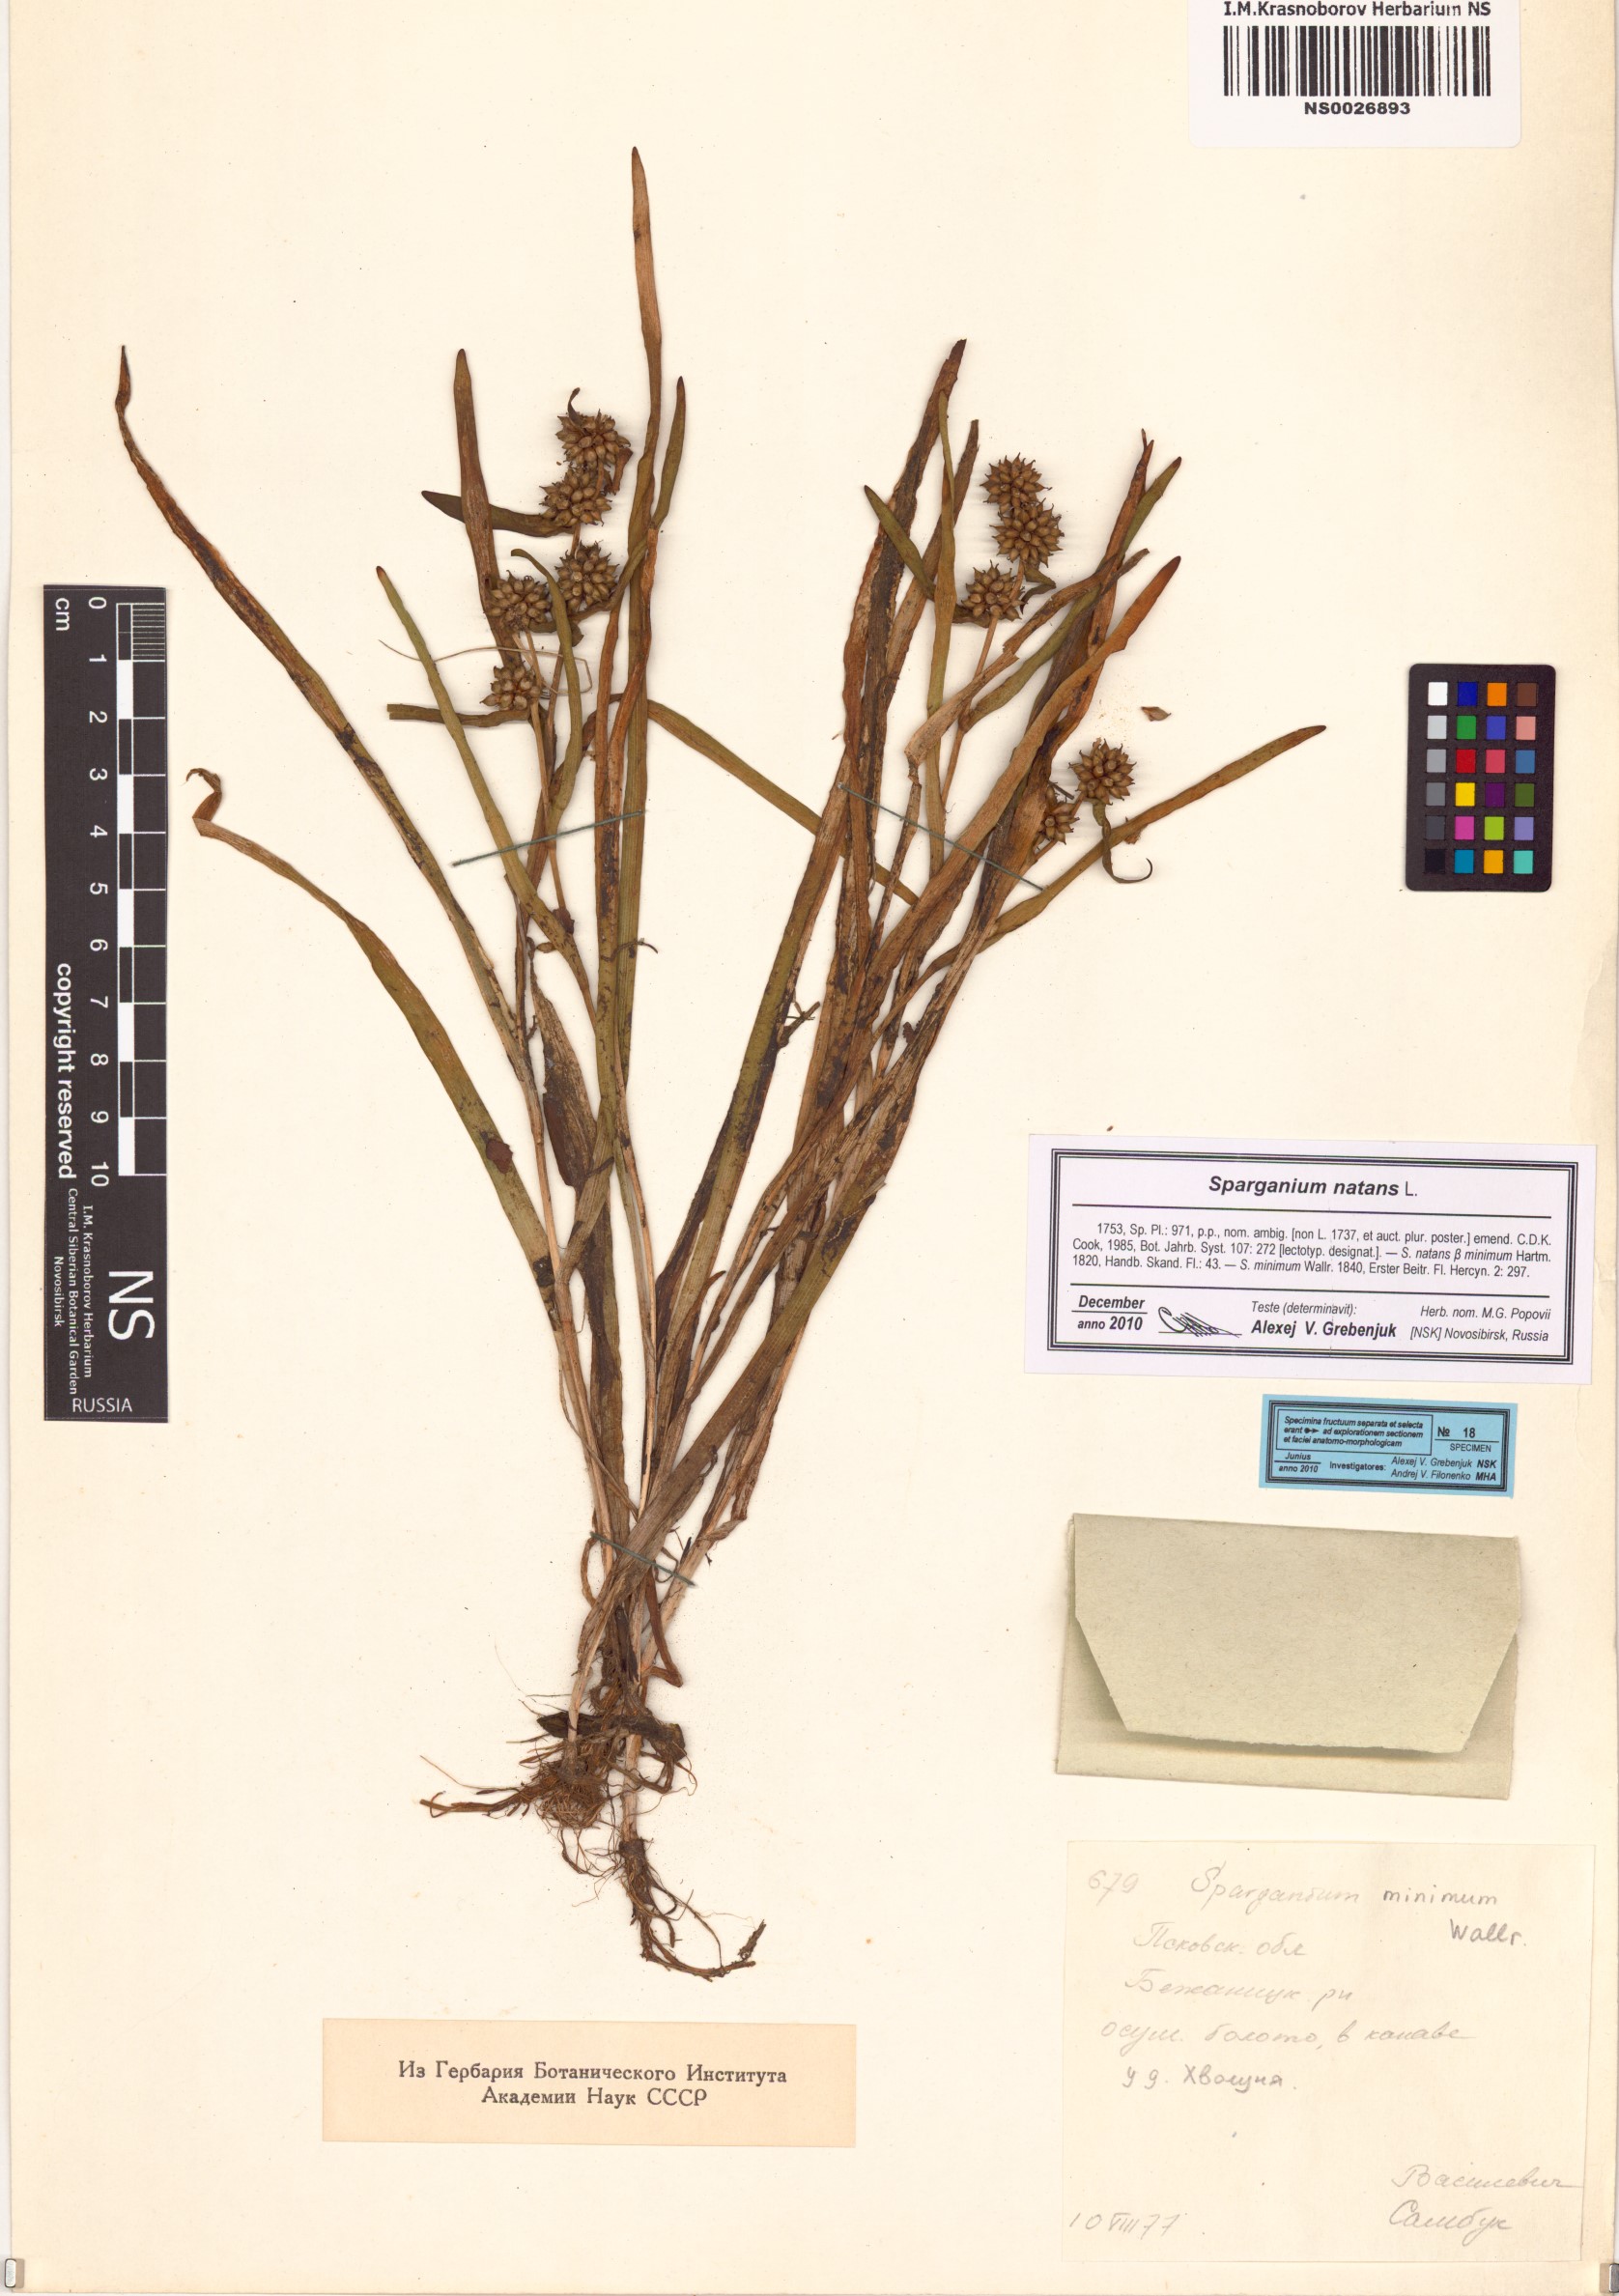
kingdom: Plantae
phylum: Tracheophyta
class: Liliopsida
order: Poales
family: Typhaceae
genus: Sparganium
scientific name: Sparganium natans
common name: Least bur-reed
